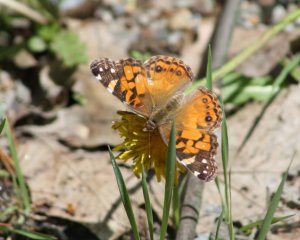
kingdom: Animalia
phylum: Arthropoda
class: Insecta
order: Lepidoptera
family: Nymphalidae
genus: Vanessa
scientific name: Vanessa virginiensis
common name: American Lady
